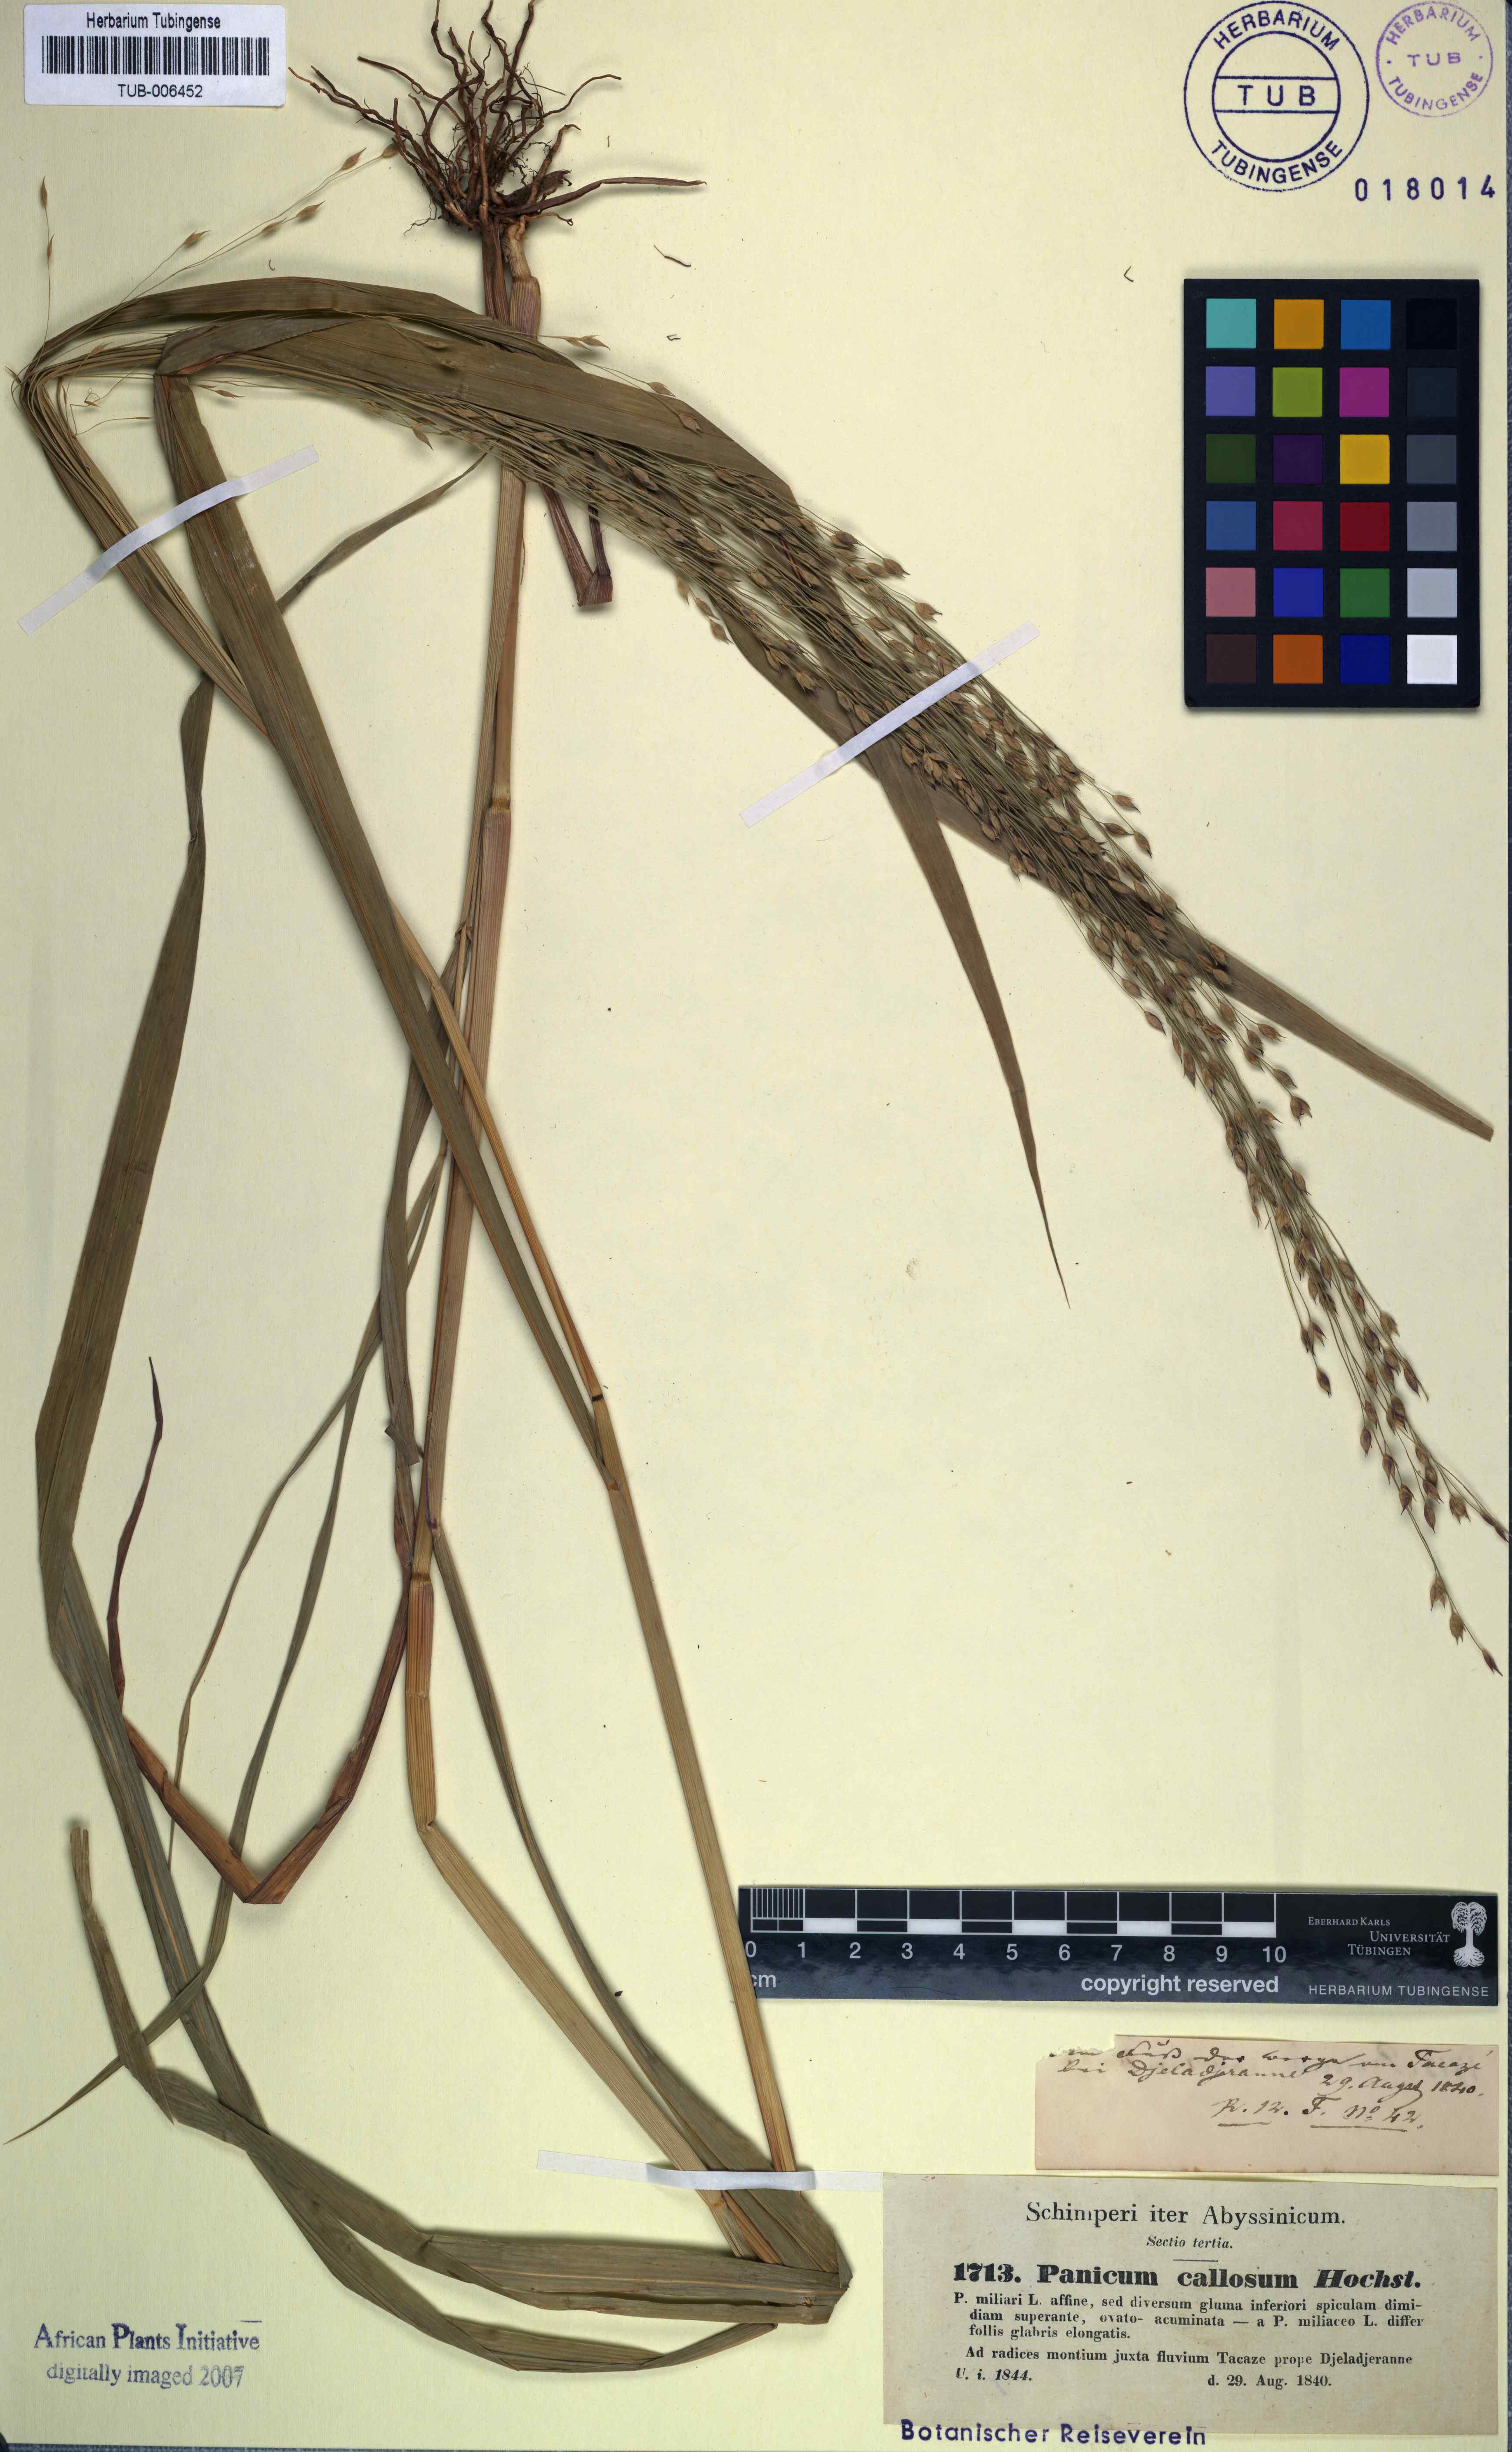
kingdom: Plantae
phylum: Tracheophyta
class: Liliopsida
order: Poales
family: Poaceae
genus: Panicum
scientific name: Panicum miliaceum
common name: Common millet
